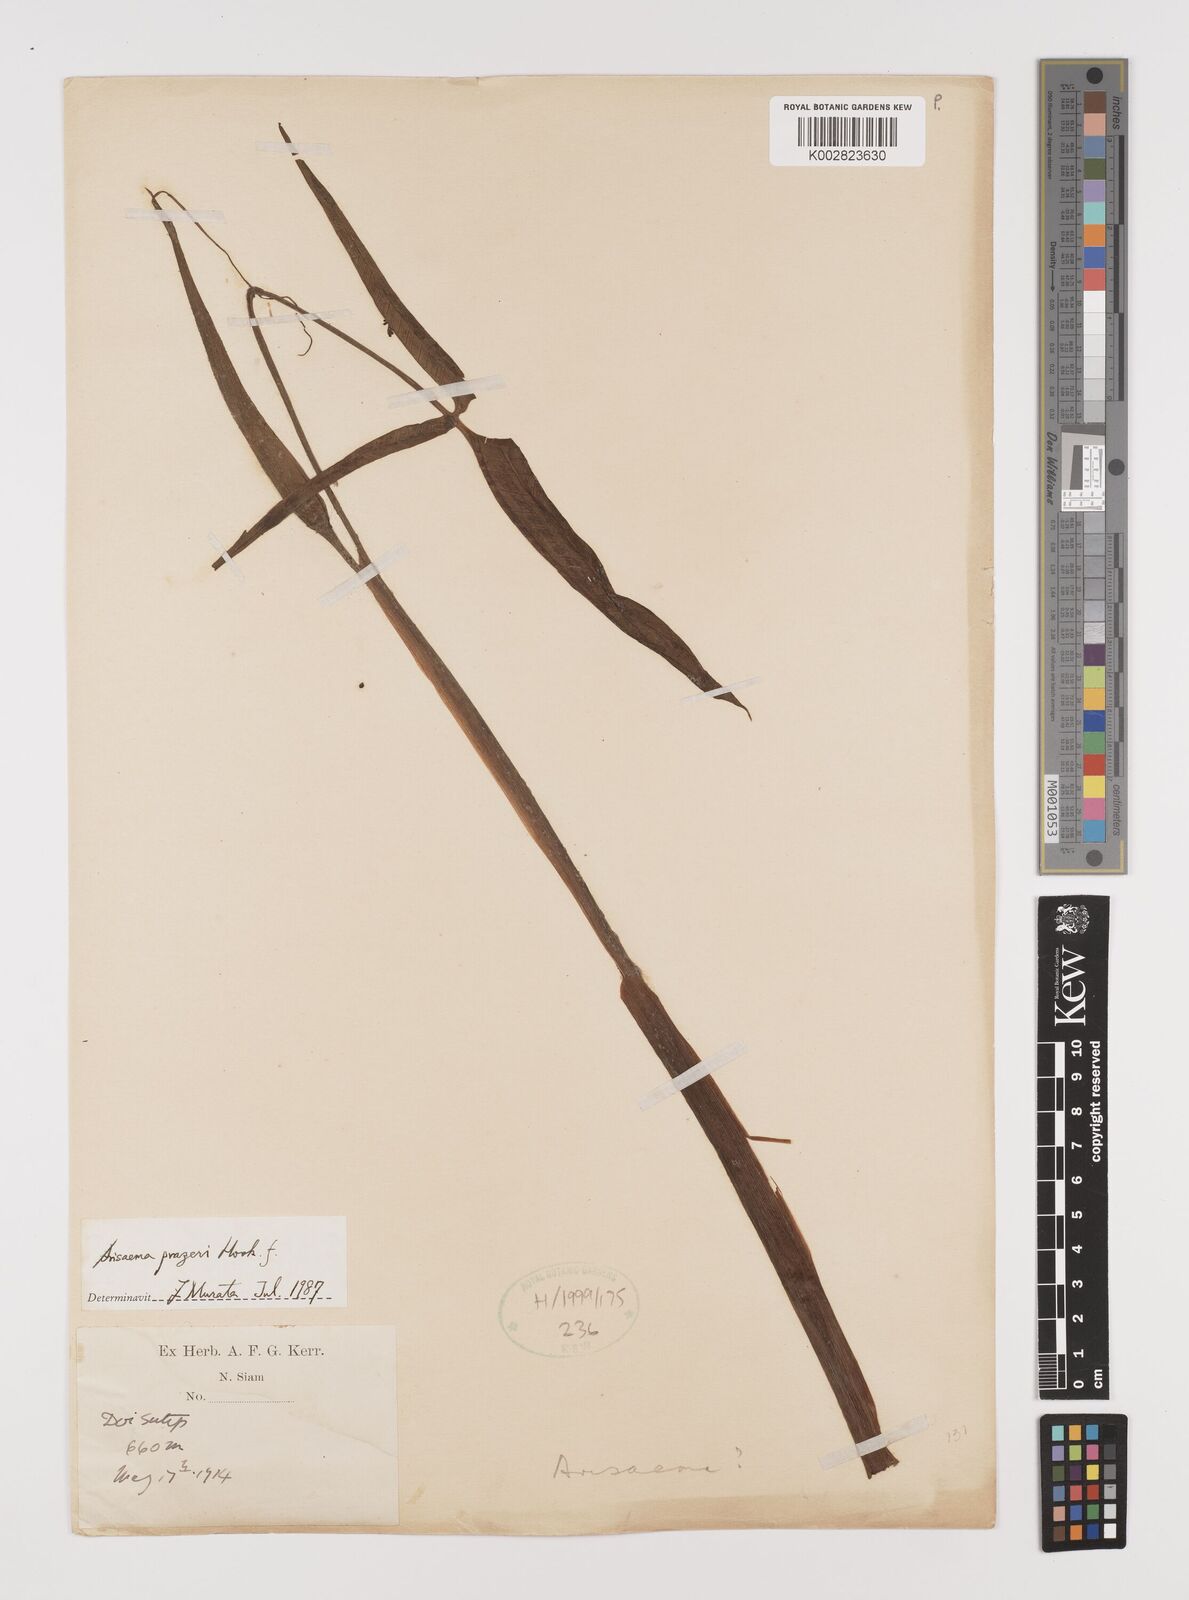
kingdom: Plantae
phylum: Tracheophyta
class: Liliopsida
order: Alismatales
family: Araceae
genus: Arisaema
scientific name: Arisaema prazeri
